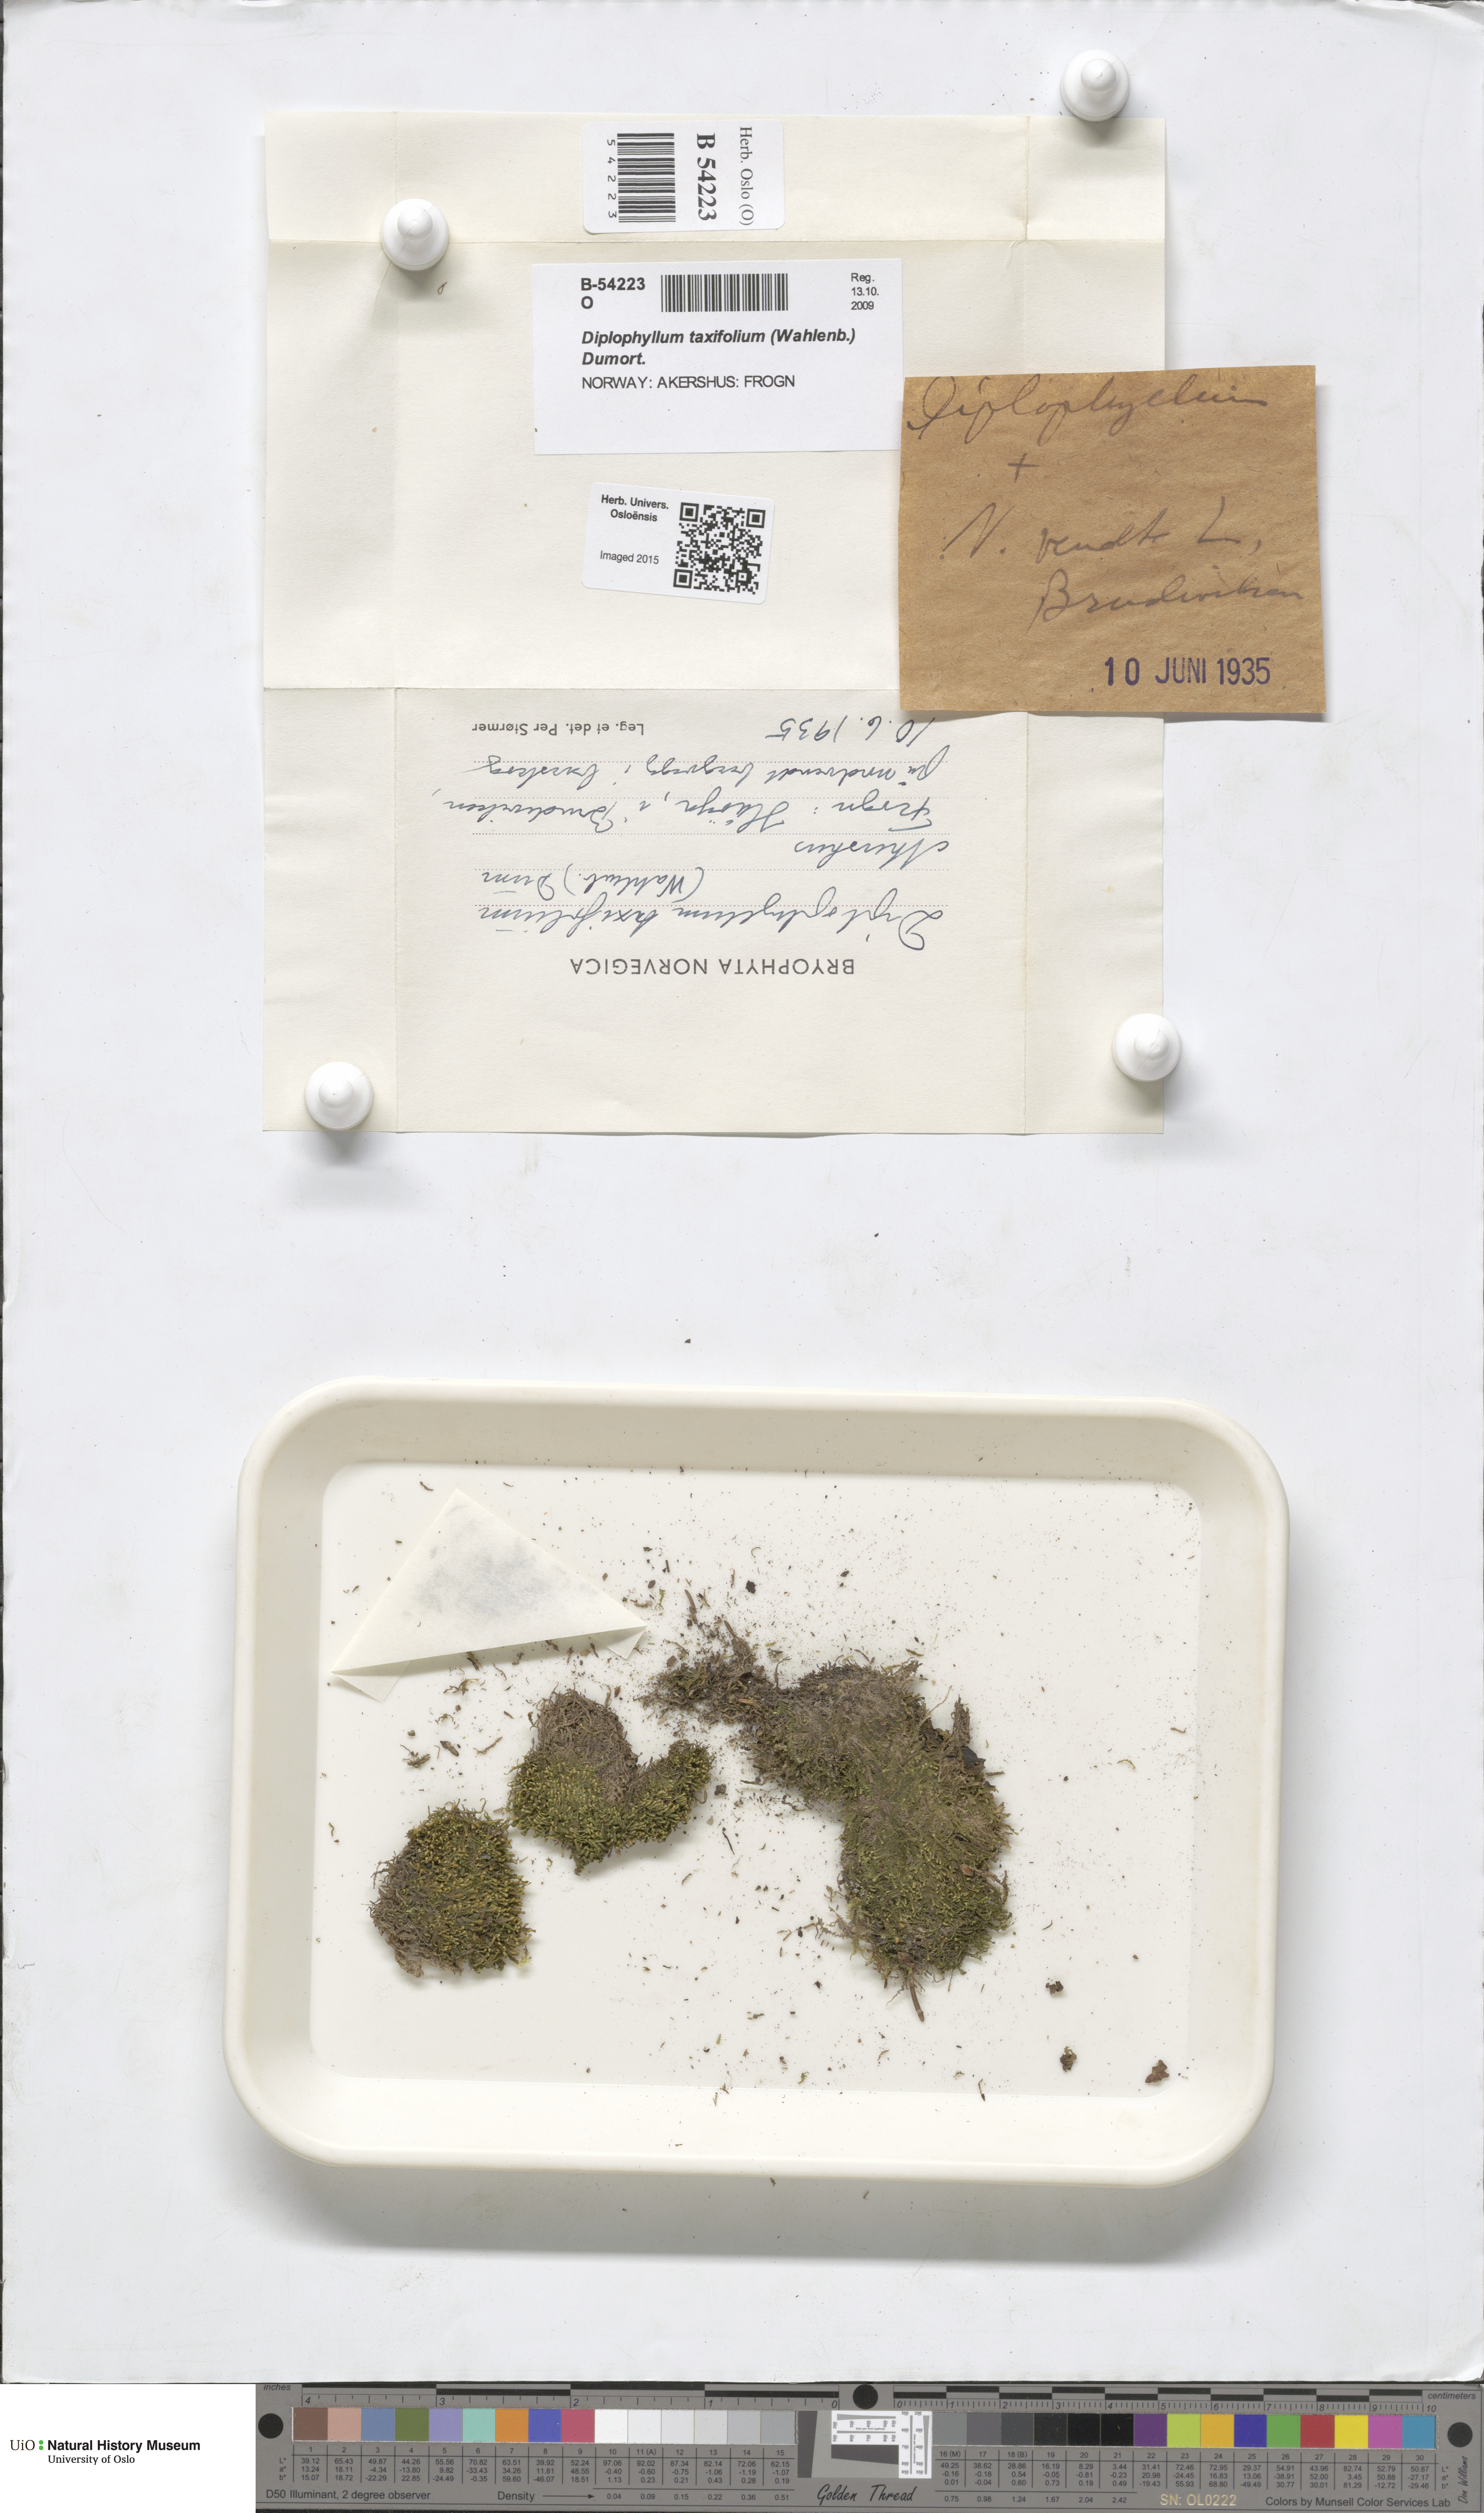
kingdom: Plantae
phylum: Marchantiophyta
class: Jungermanniopsida
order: Jungermanniales
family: Scapaniaceae
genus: Diplophyllum
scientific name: Diplophyllum taxifolium
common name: Alpine earwort
